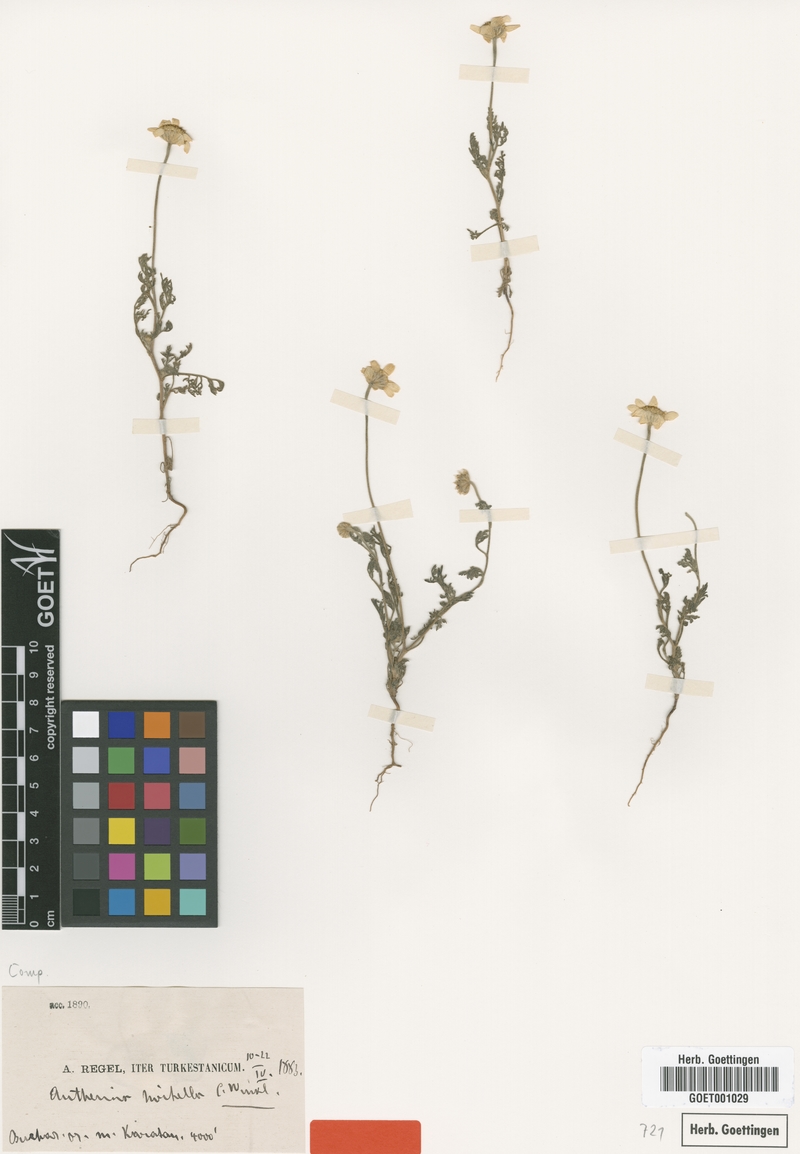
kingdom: Plantae
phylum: Tracheophyta
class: Magnoliopsida
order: Asterales
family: Asteraceae
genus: Anthemis
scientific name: Anthemis hirtella
